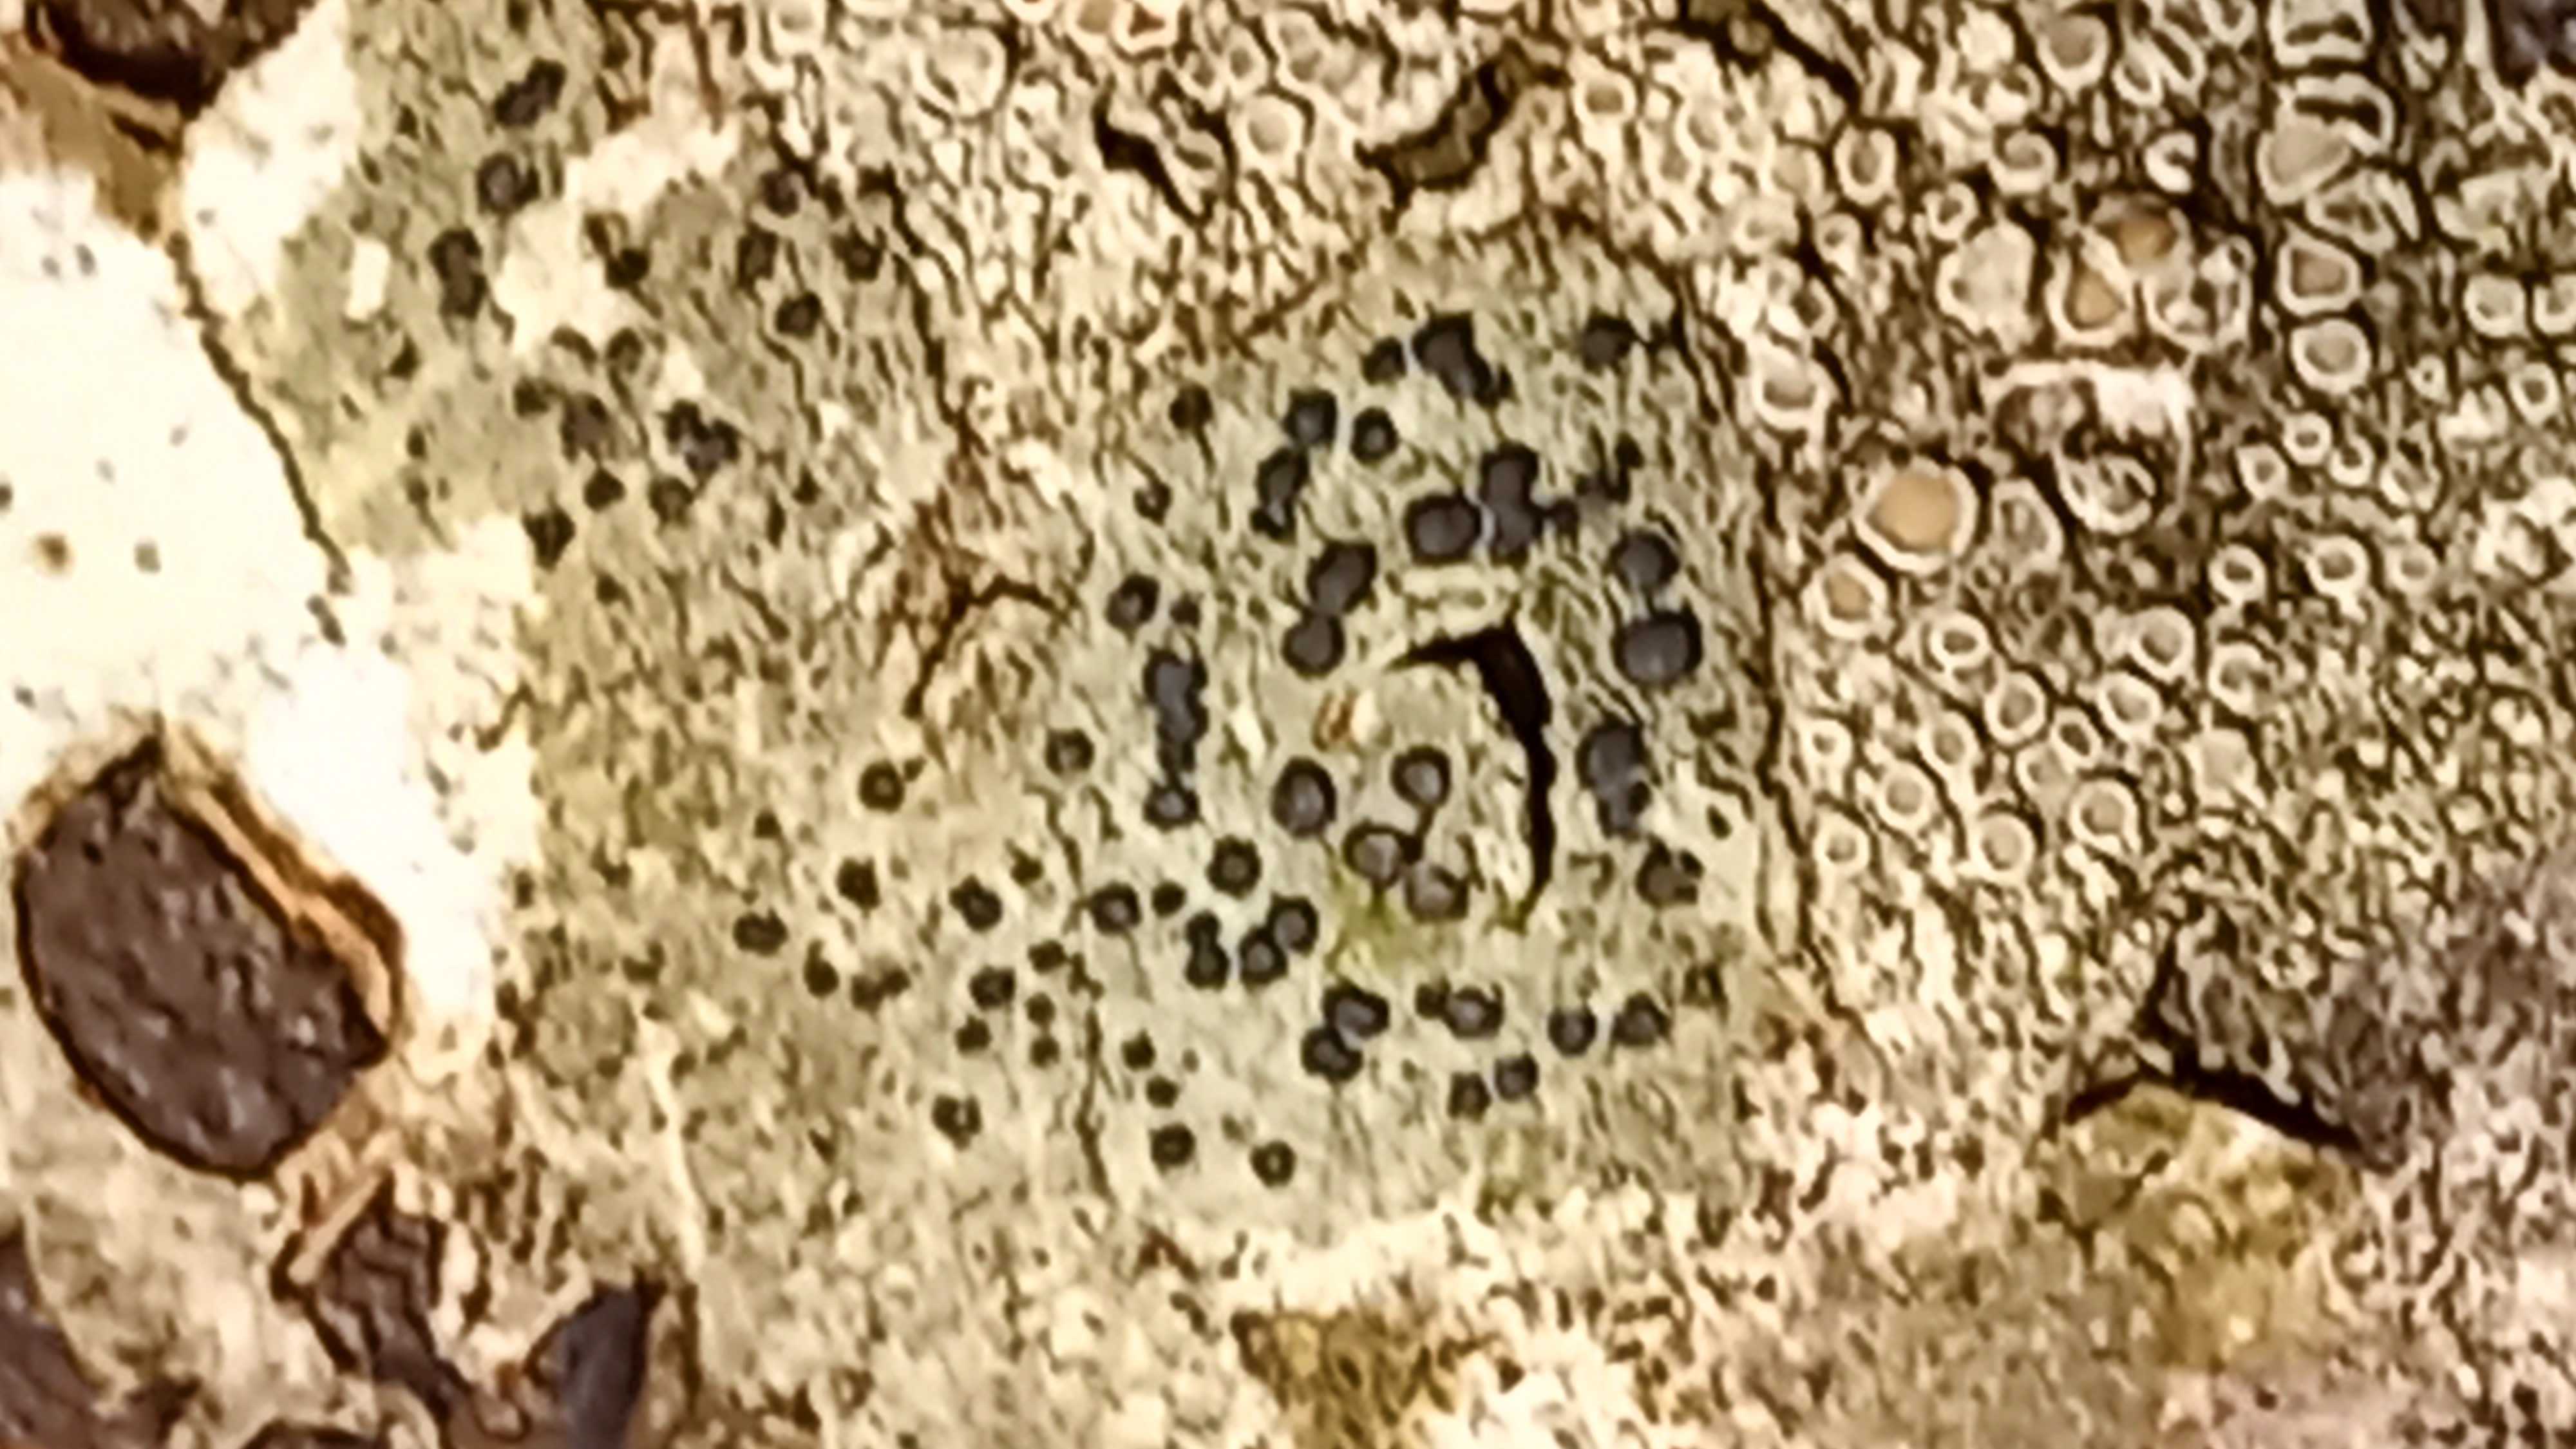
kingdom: Fungi
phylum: Ascomycota
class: Lecanoromycetes
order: Lecanorales
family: Lecanoraceae
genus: Lecidella
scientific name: Lecidella elaeochroma
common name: grågrøn skivelav
